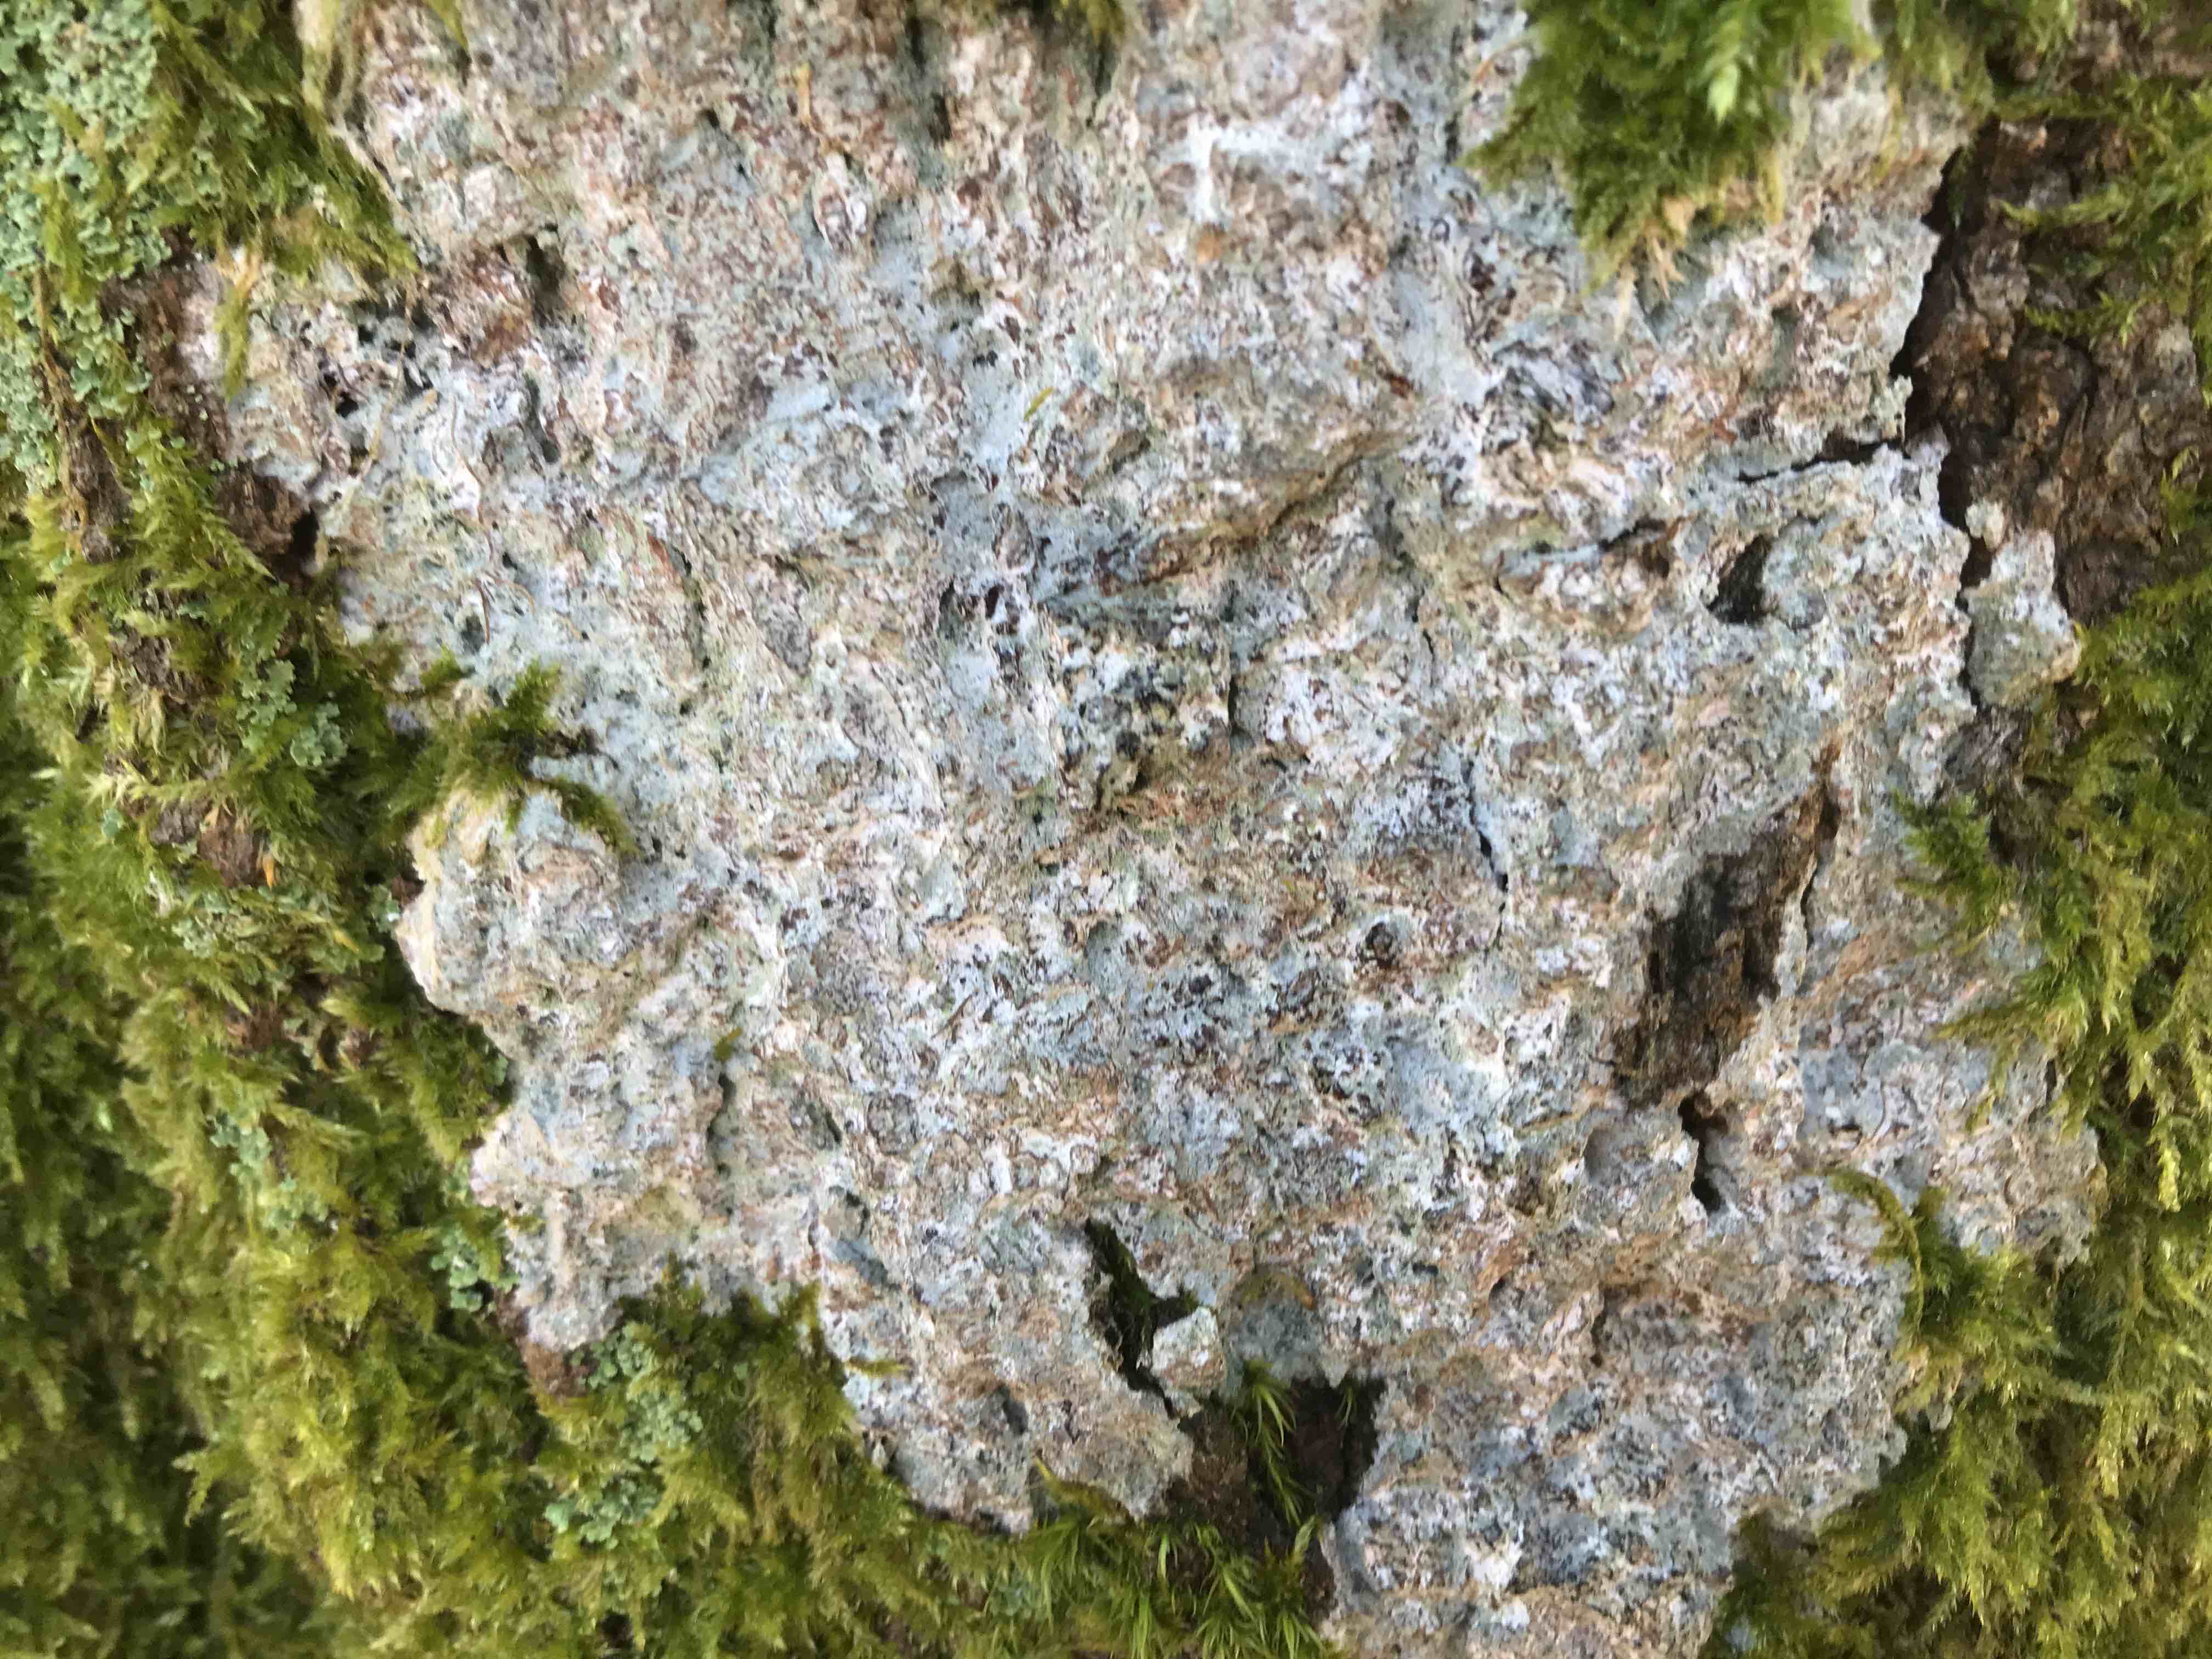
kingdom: Fungi
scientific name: Fungi
